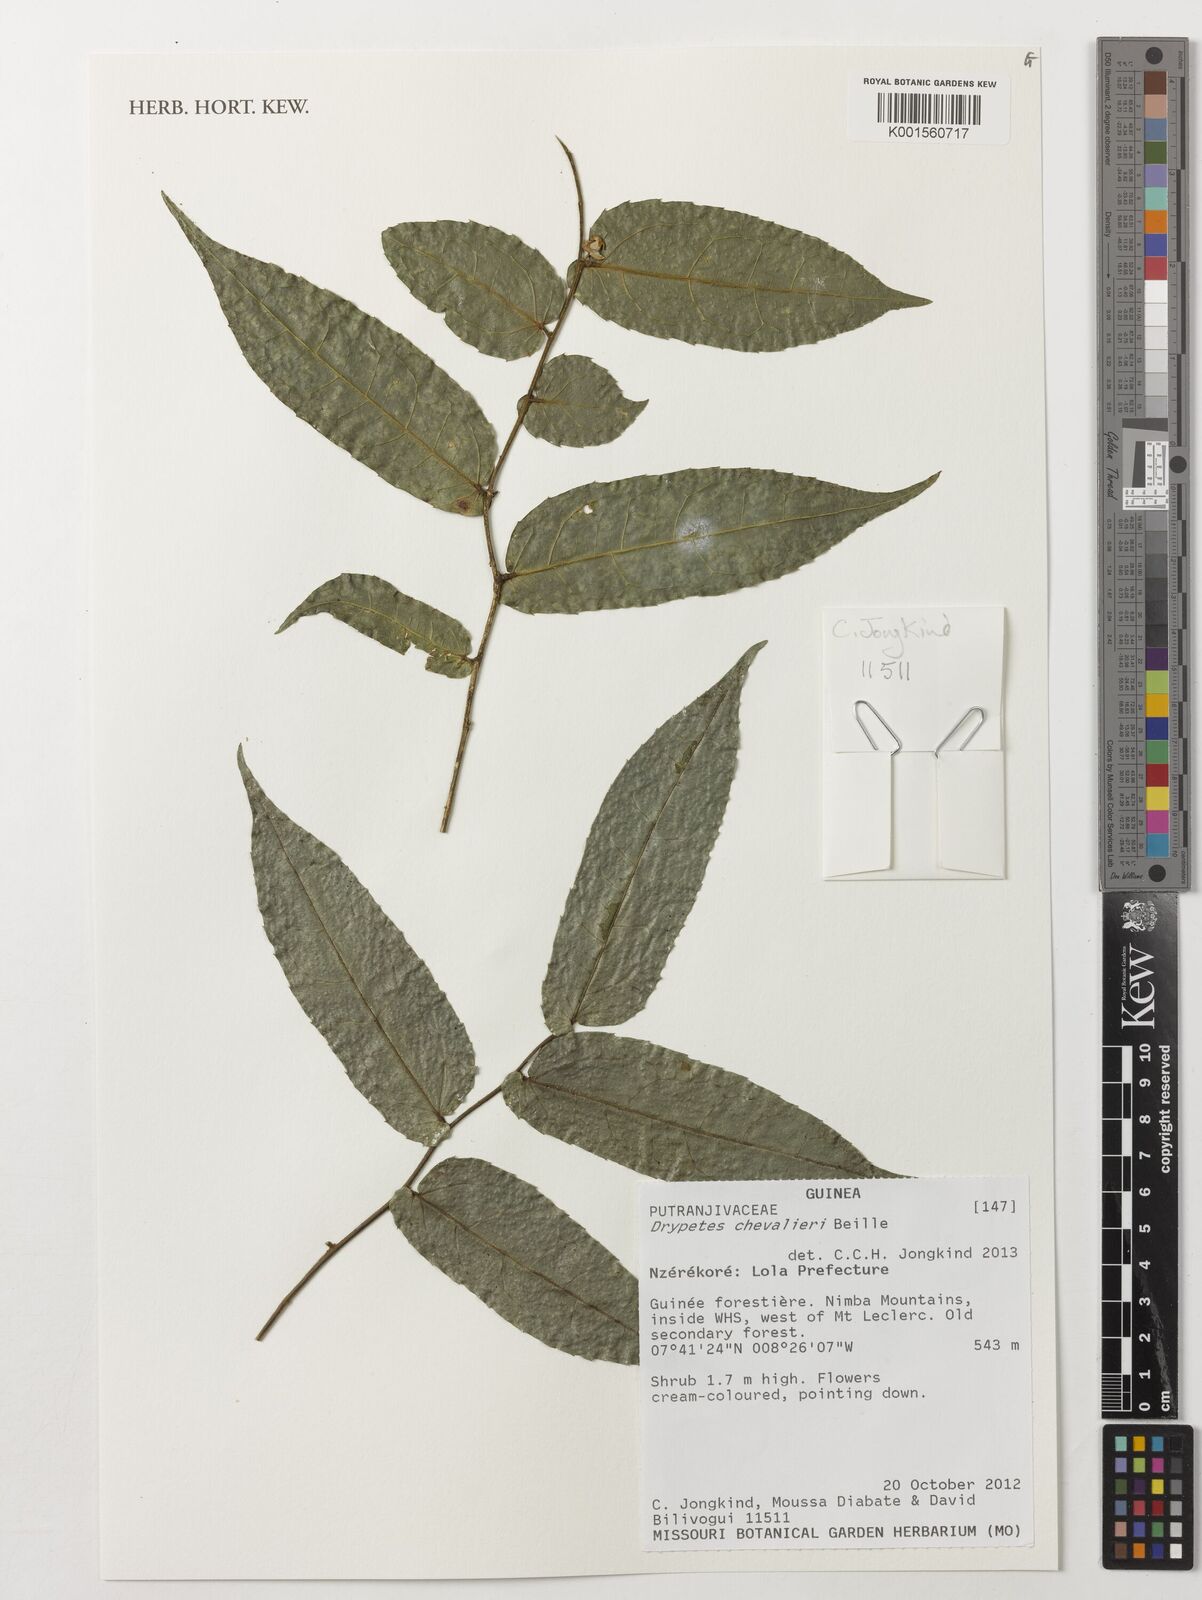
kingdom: Plantae
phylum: Tracheophyta
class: Magnoliopsida
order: Malpighiales
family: Putranjivaceae
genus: Drypetes
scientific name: Drypetes chevalieri
